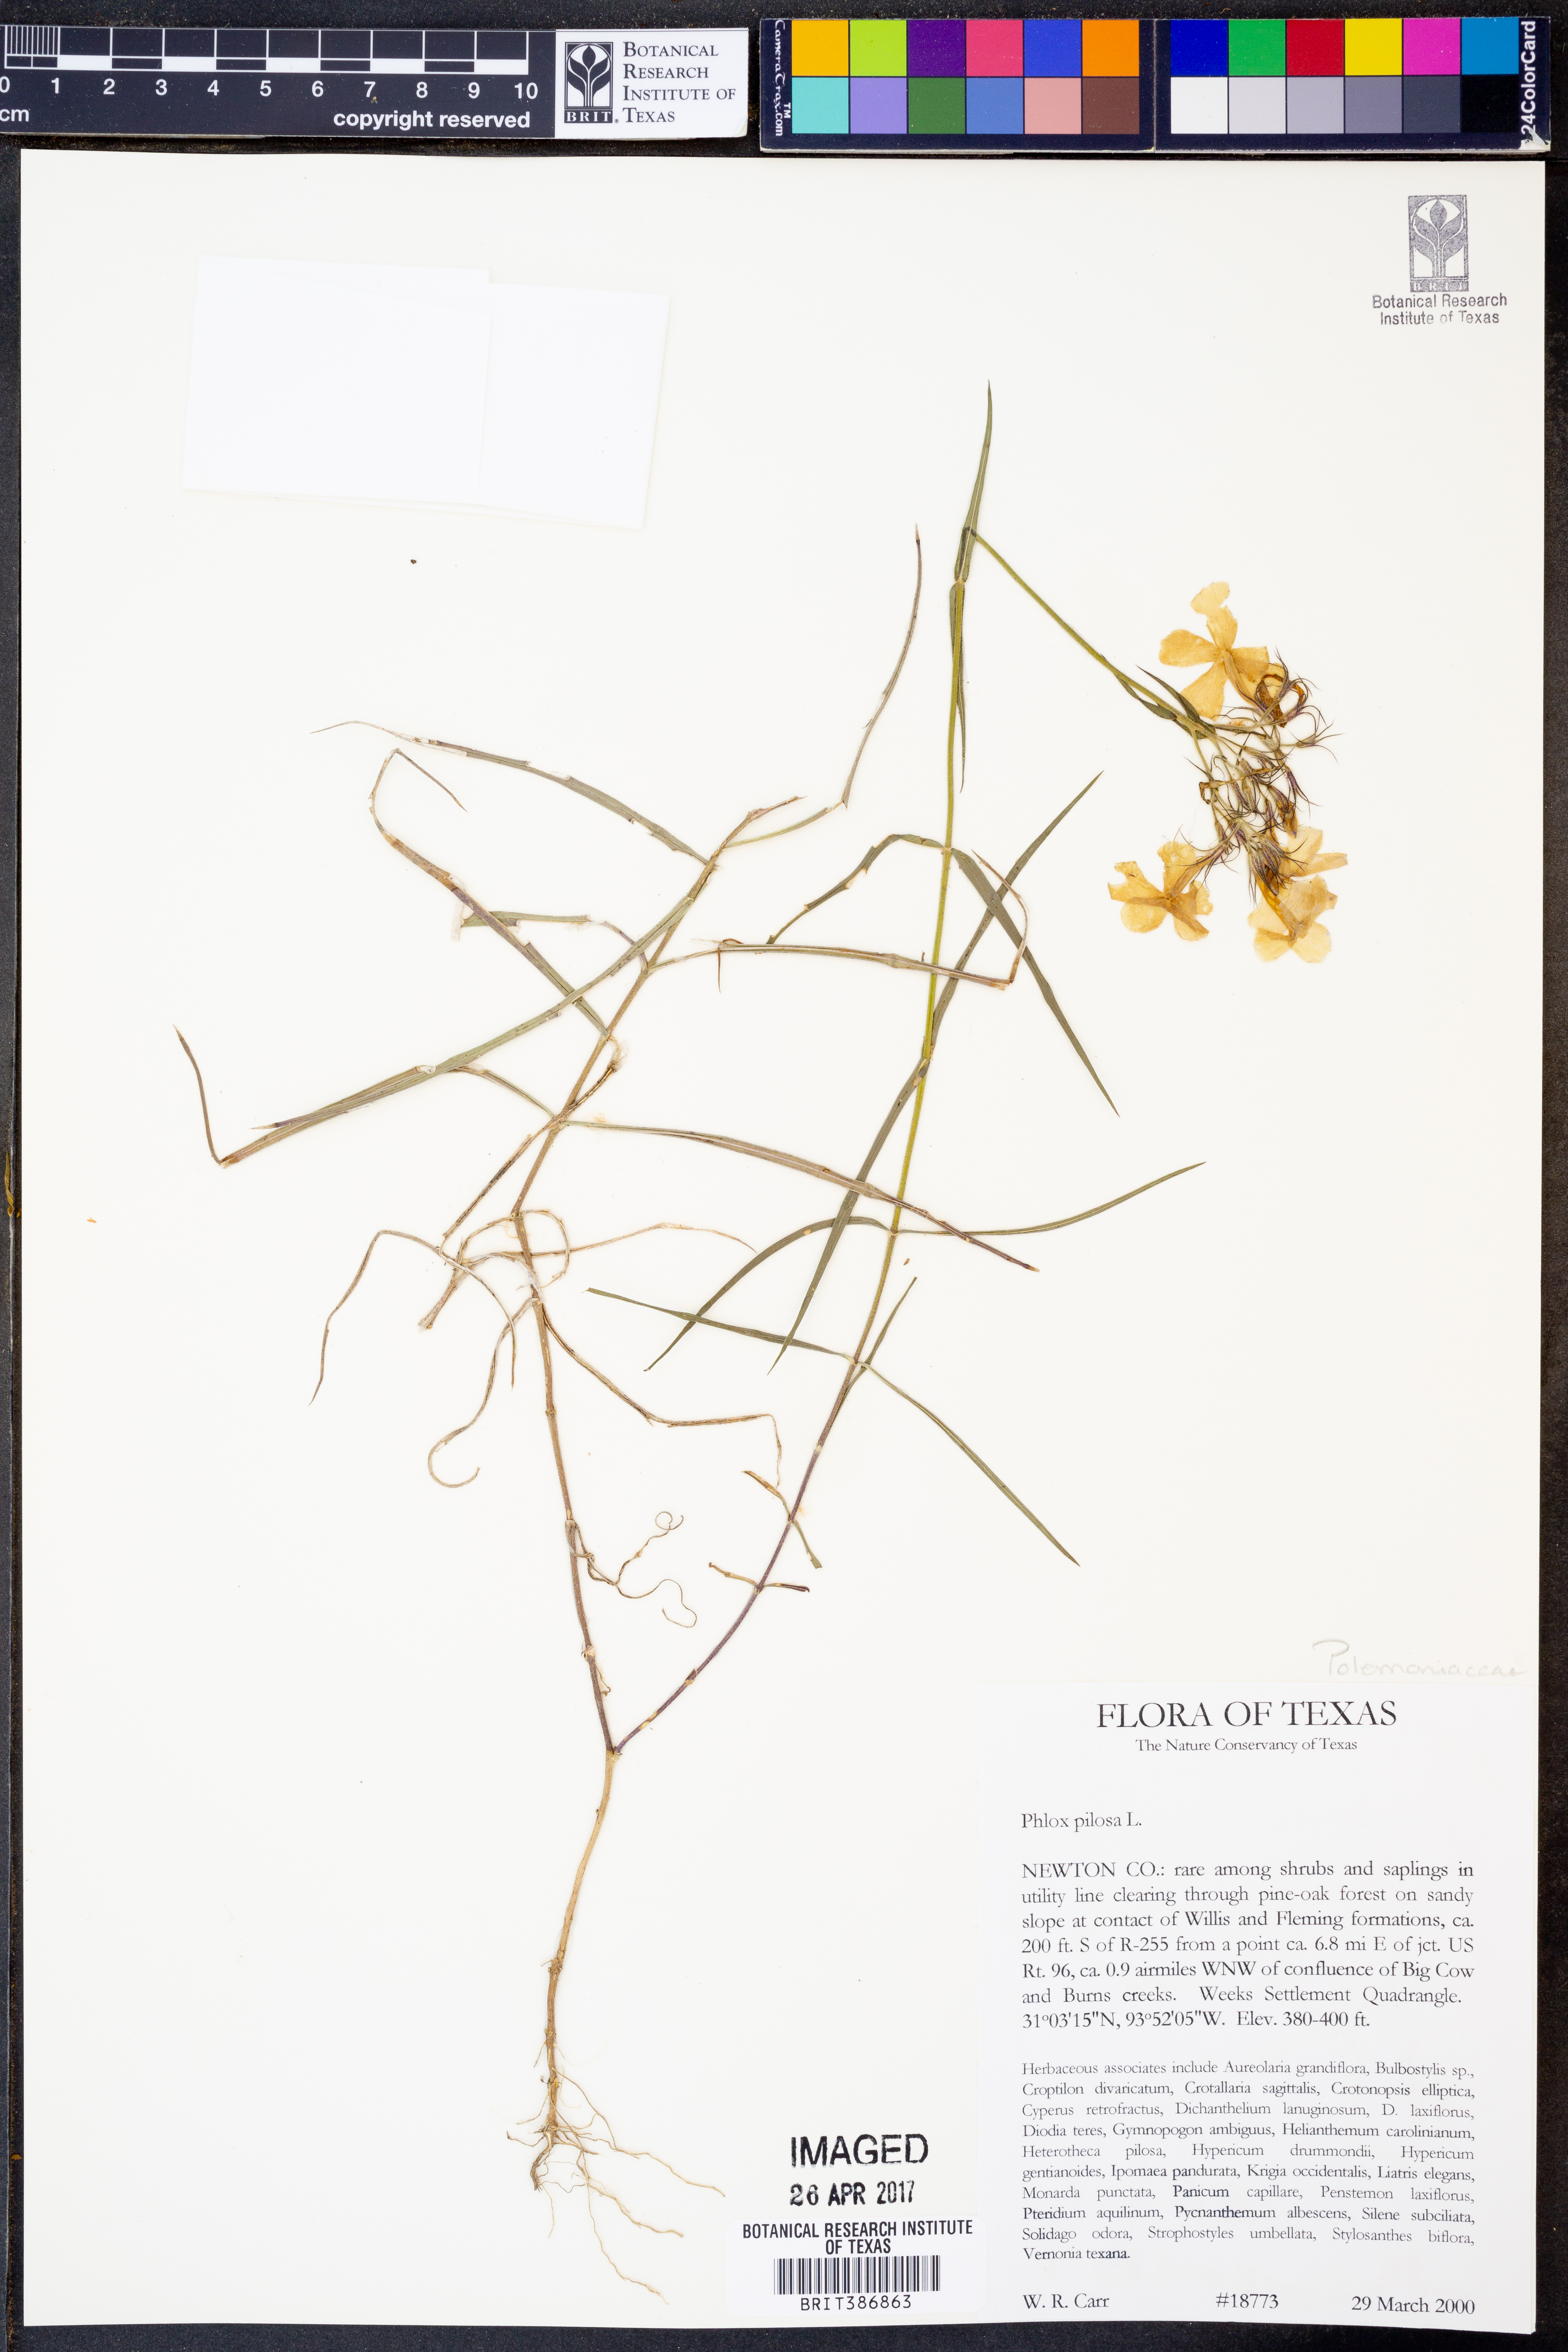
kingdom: Plantae
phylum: Tracheophyta
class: Magnoliopsida
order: Ericales
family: Polemoniaceae
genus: Phlox
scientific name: Phlox pilosa
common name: Prairie phlox
